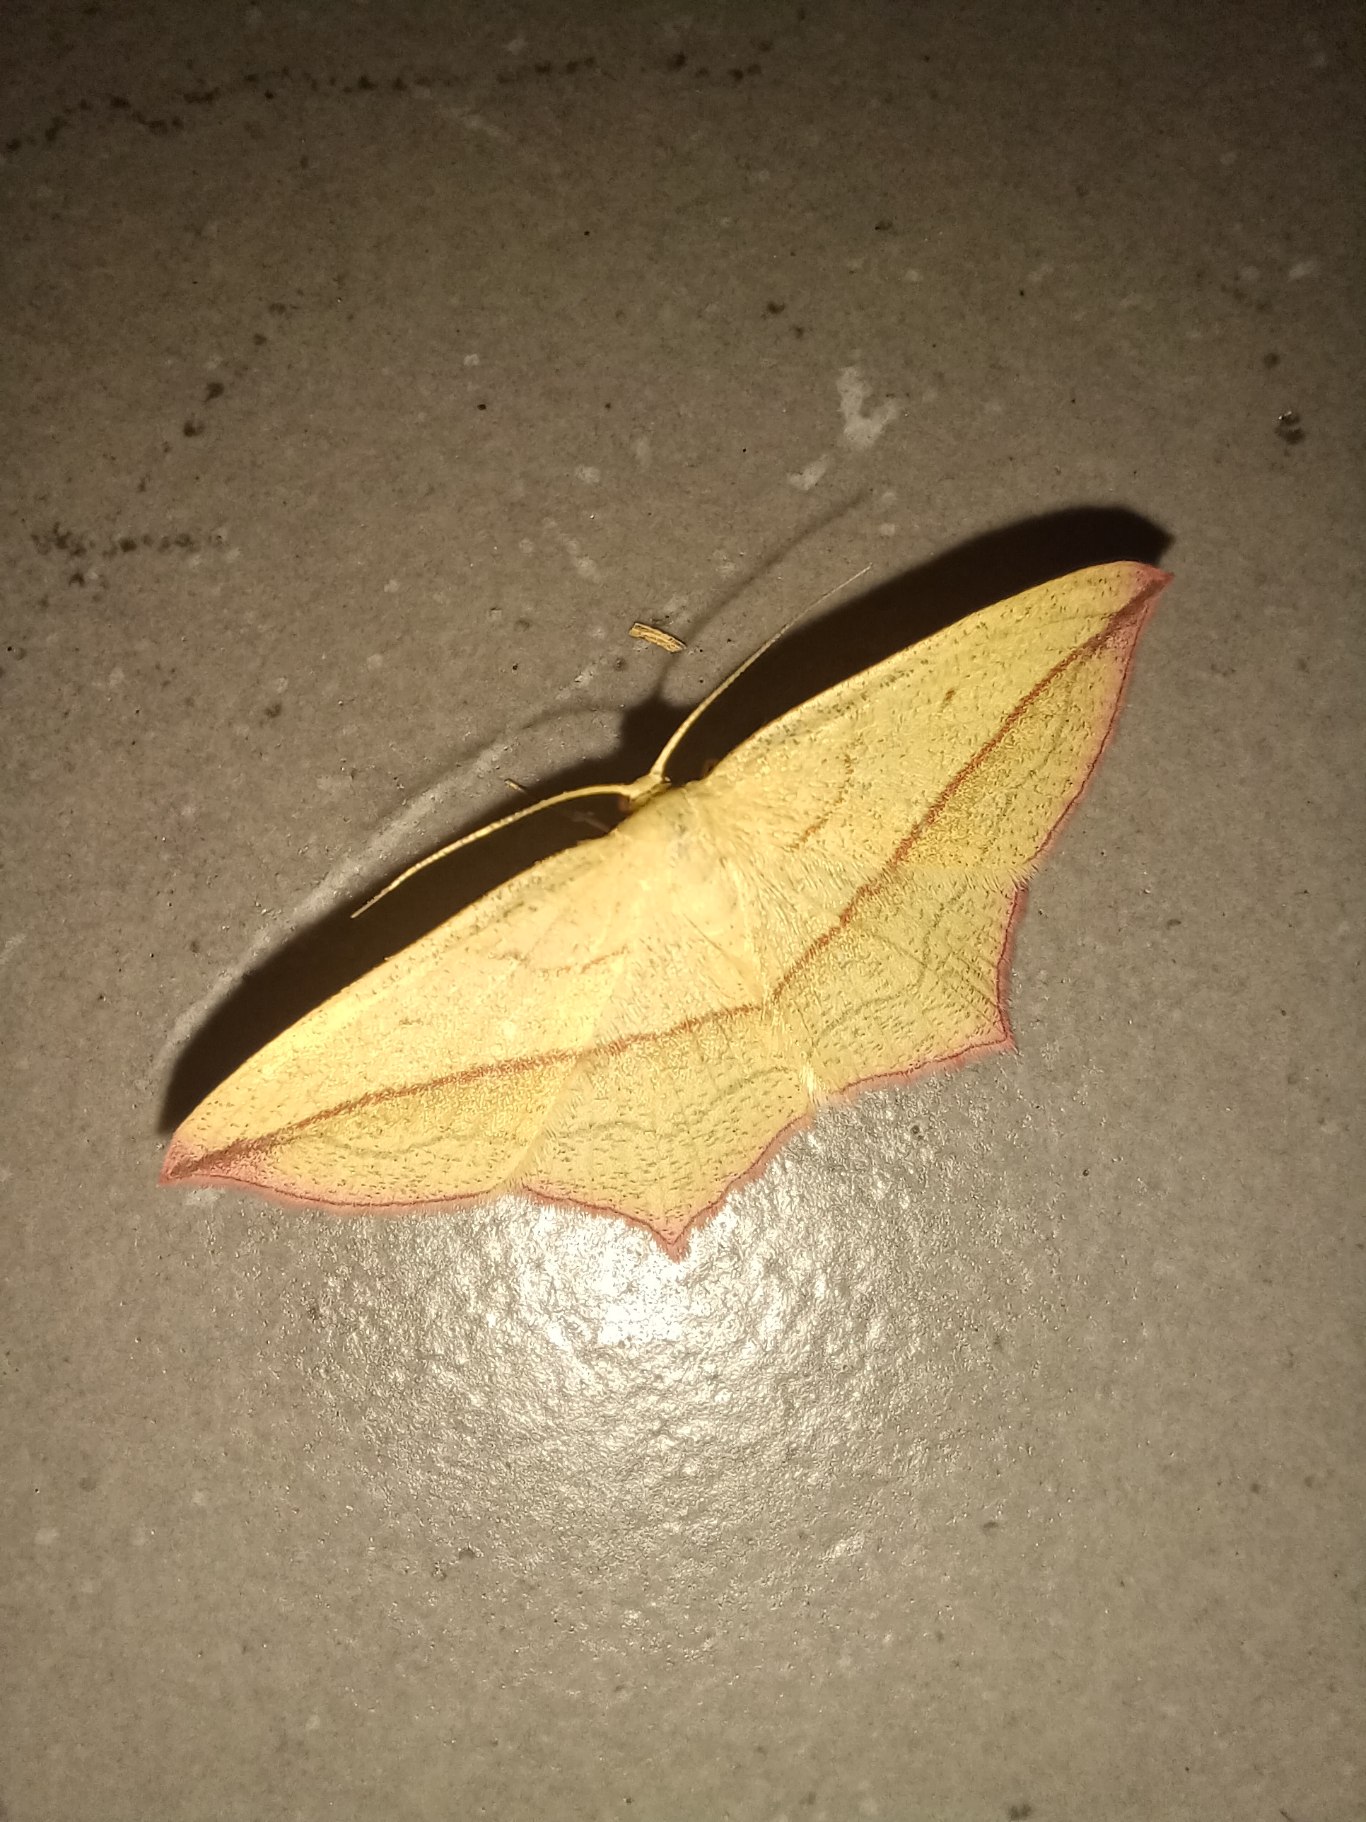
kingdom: Animalia
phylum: Arthropoda
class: Insecta
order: Lepidoptera
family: Geometridae
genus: Timandra
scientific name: Timandra comae
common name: Gul syremåler
